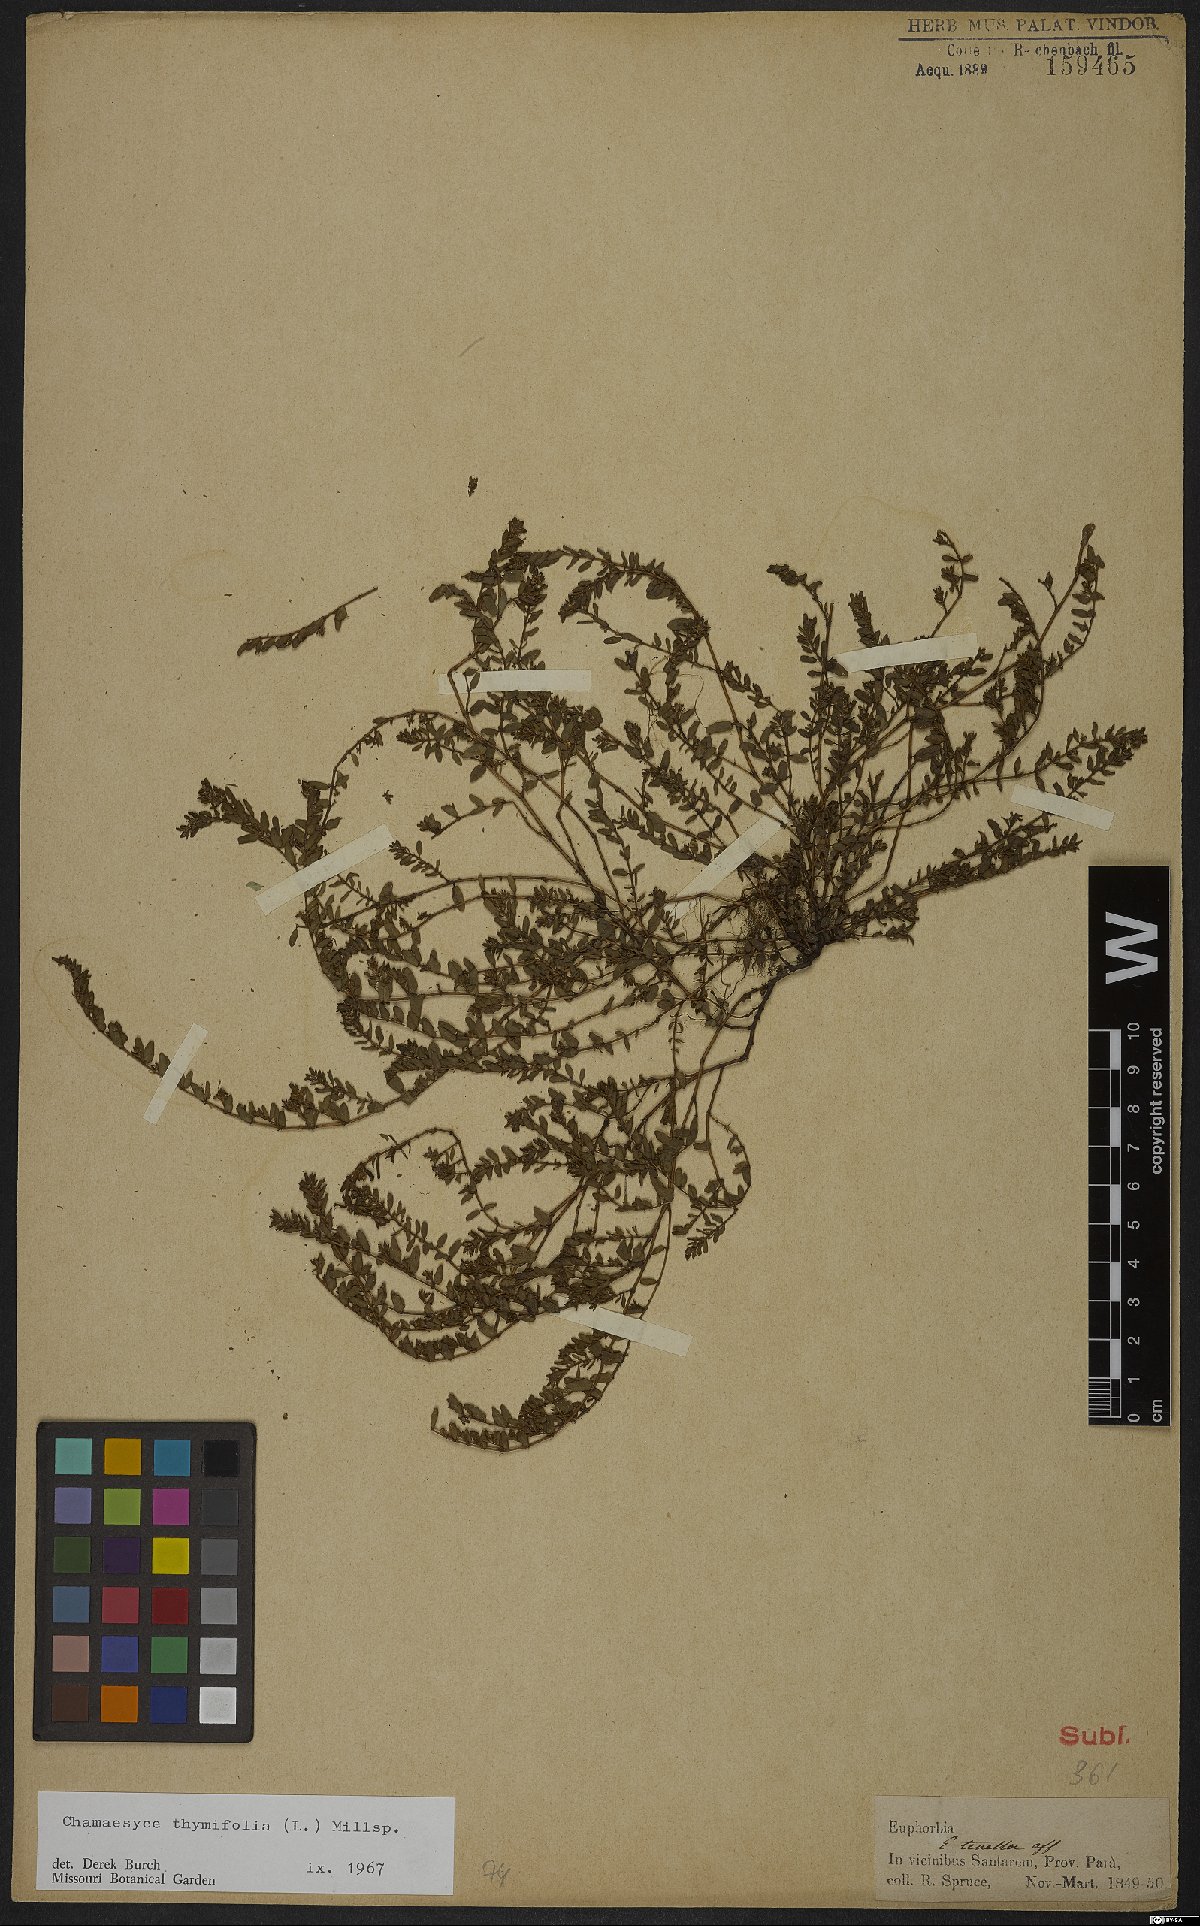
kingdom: Plantae
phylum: Tracheophyta
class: Magnoliopsida
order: Malpighiales
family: Euphorbiaceae
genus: Euphorbia
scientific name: Euphorbia scordiifolia
